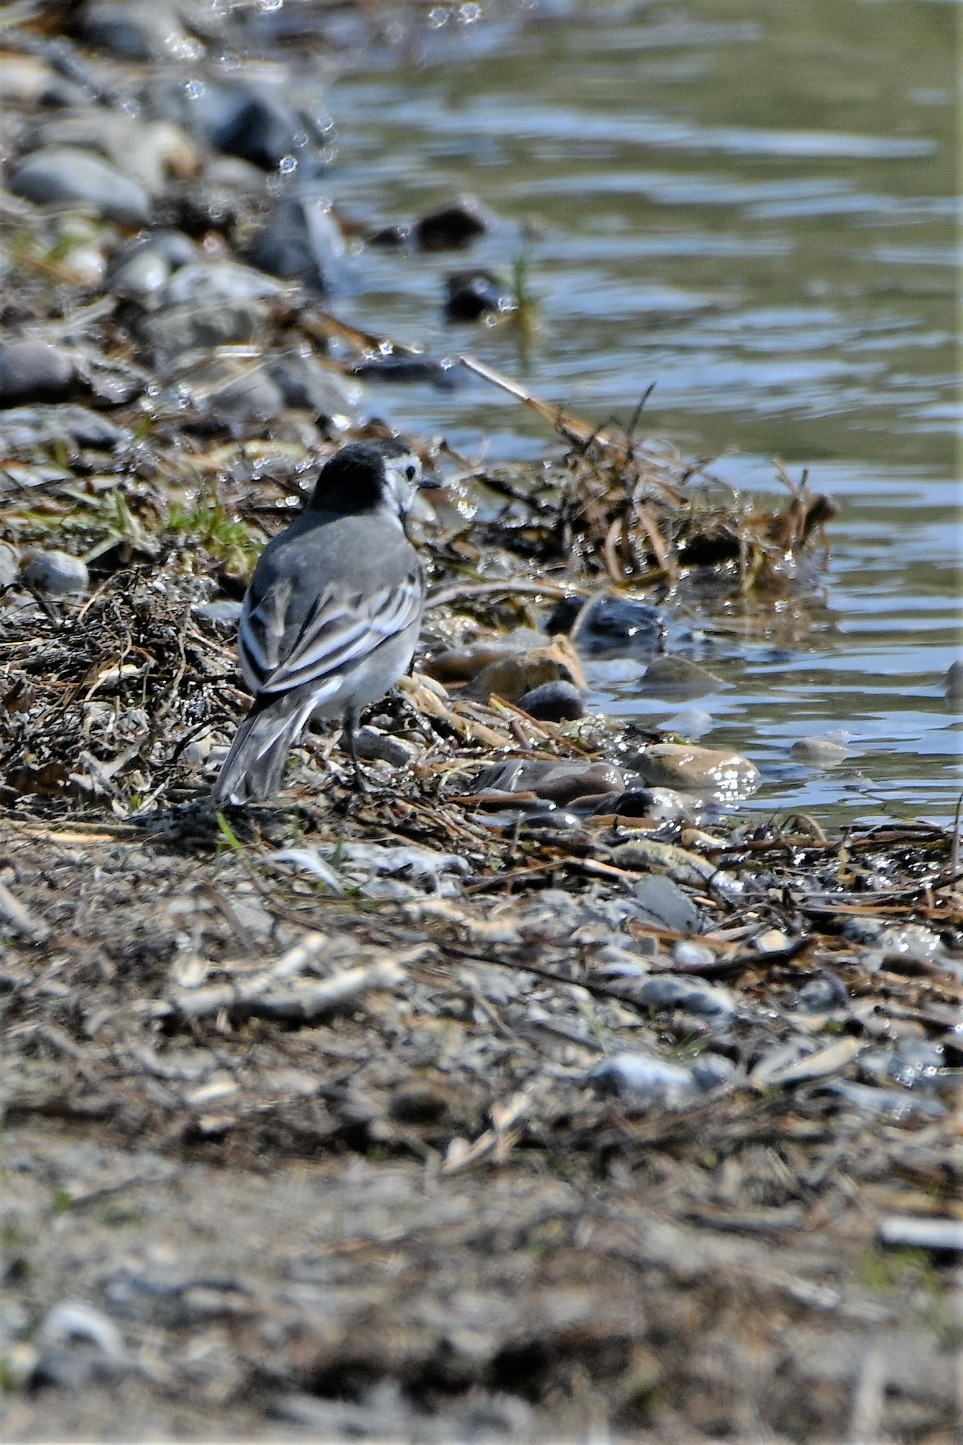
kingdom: Animalia
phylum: Chordata
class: Aves
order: Passeriformes
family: Motacillidae
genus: Motacilla
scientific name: Motacilla alba
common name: Hvid vipstjert
